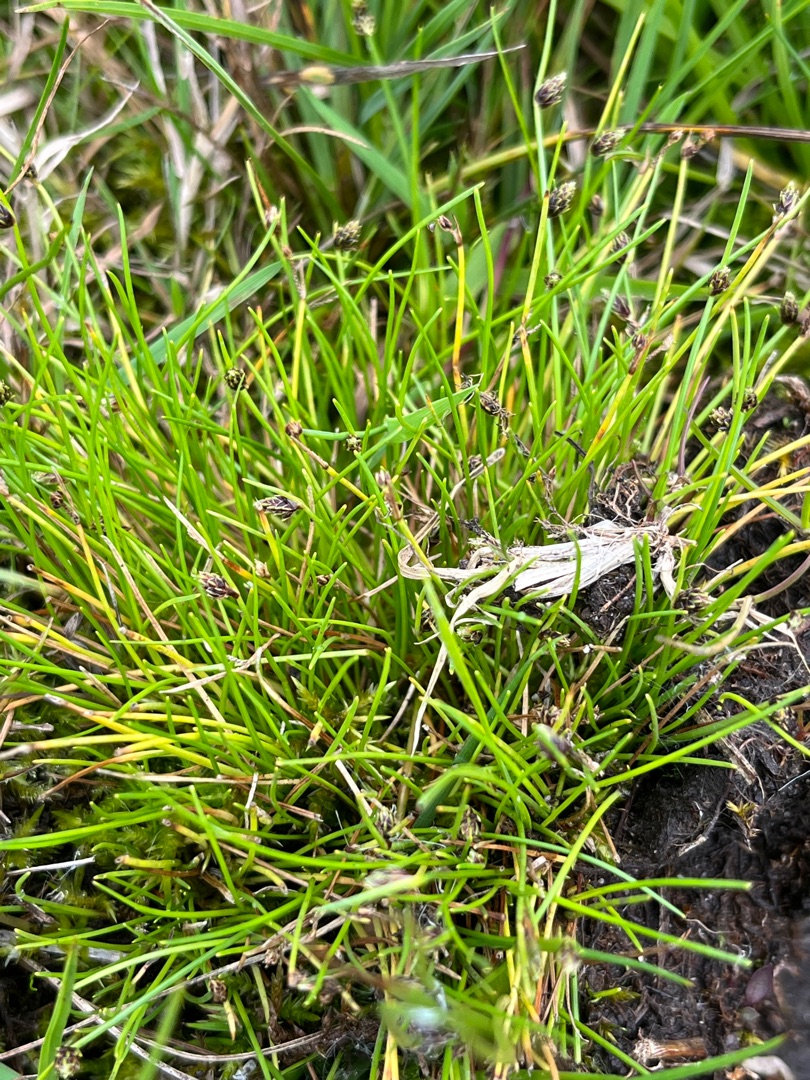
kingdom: Plantae
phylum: Tracheophyta
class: Liliopsida
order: Poales
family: Cyperaceae
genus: Isolepis
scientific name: Isolepis setacea
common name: Børste-kogleaks
